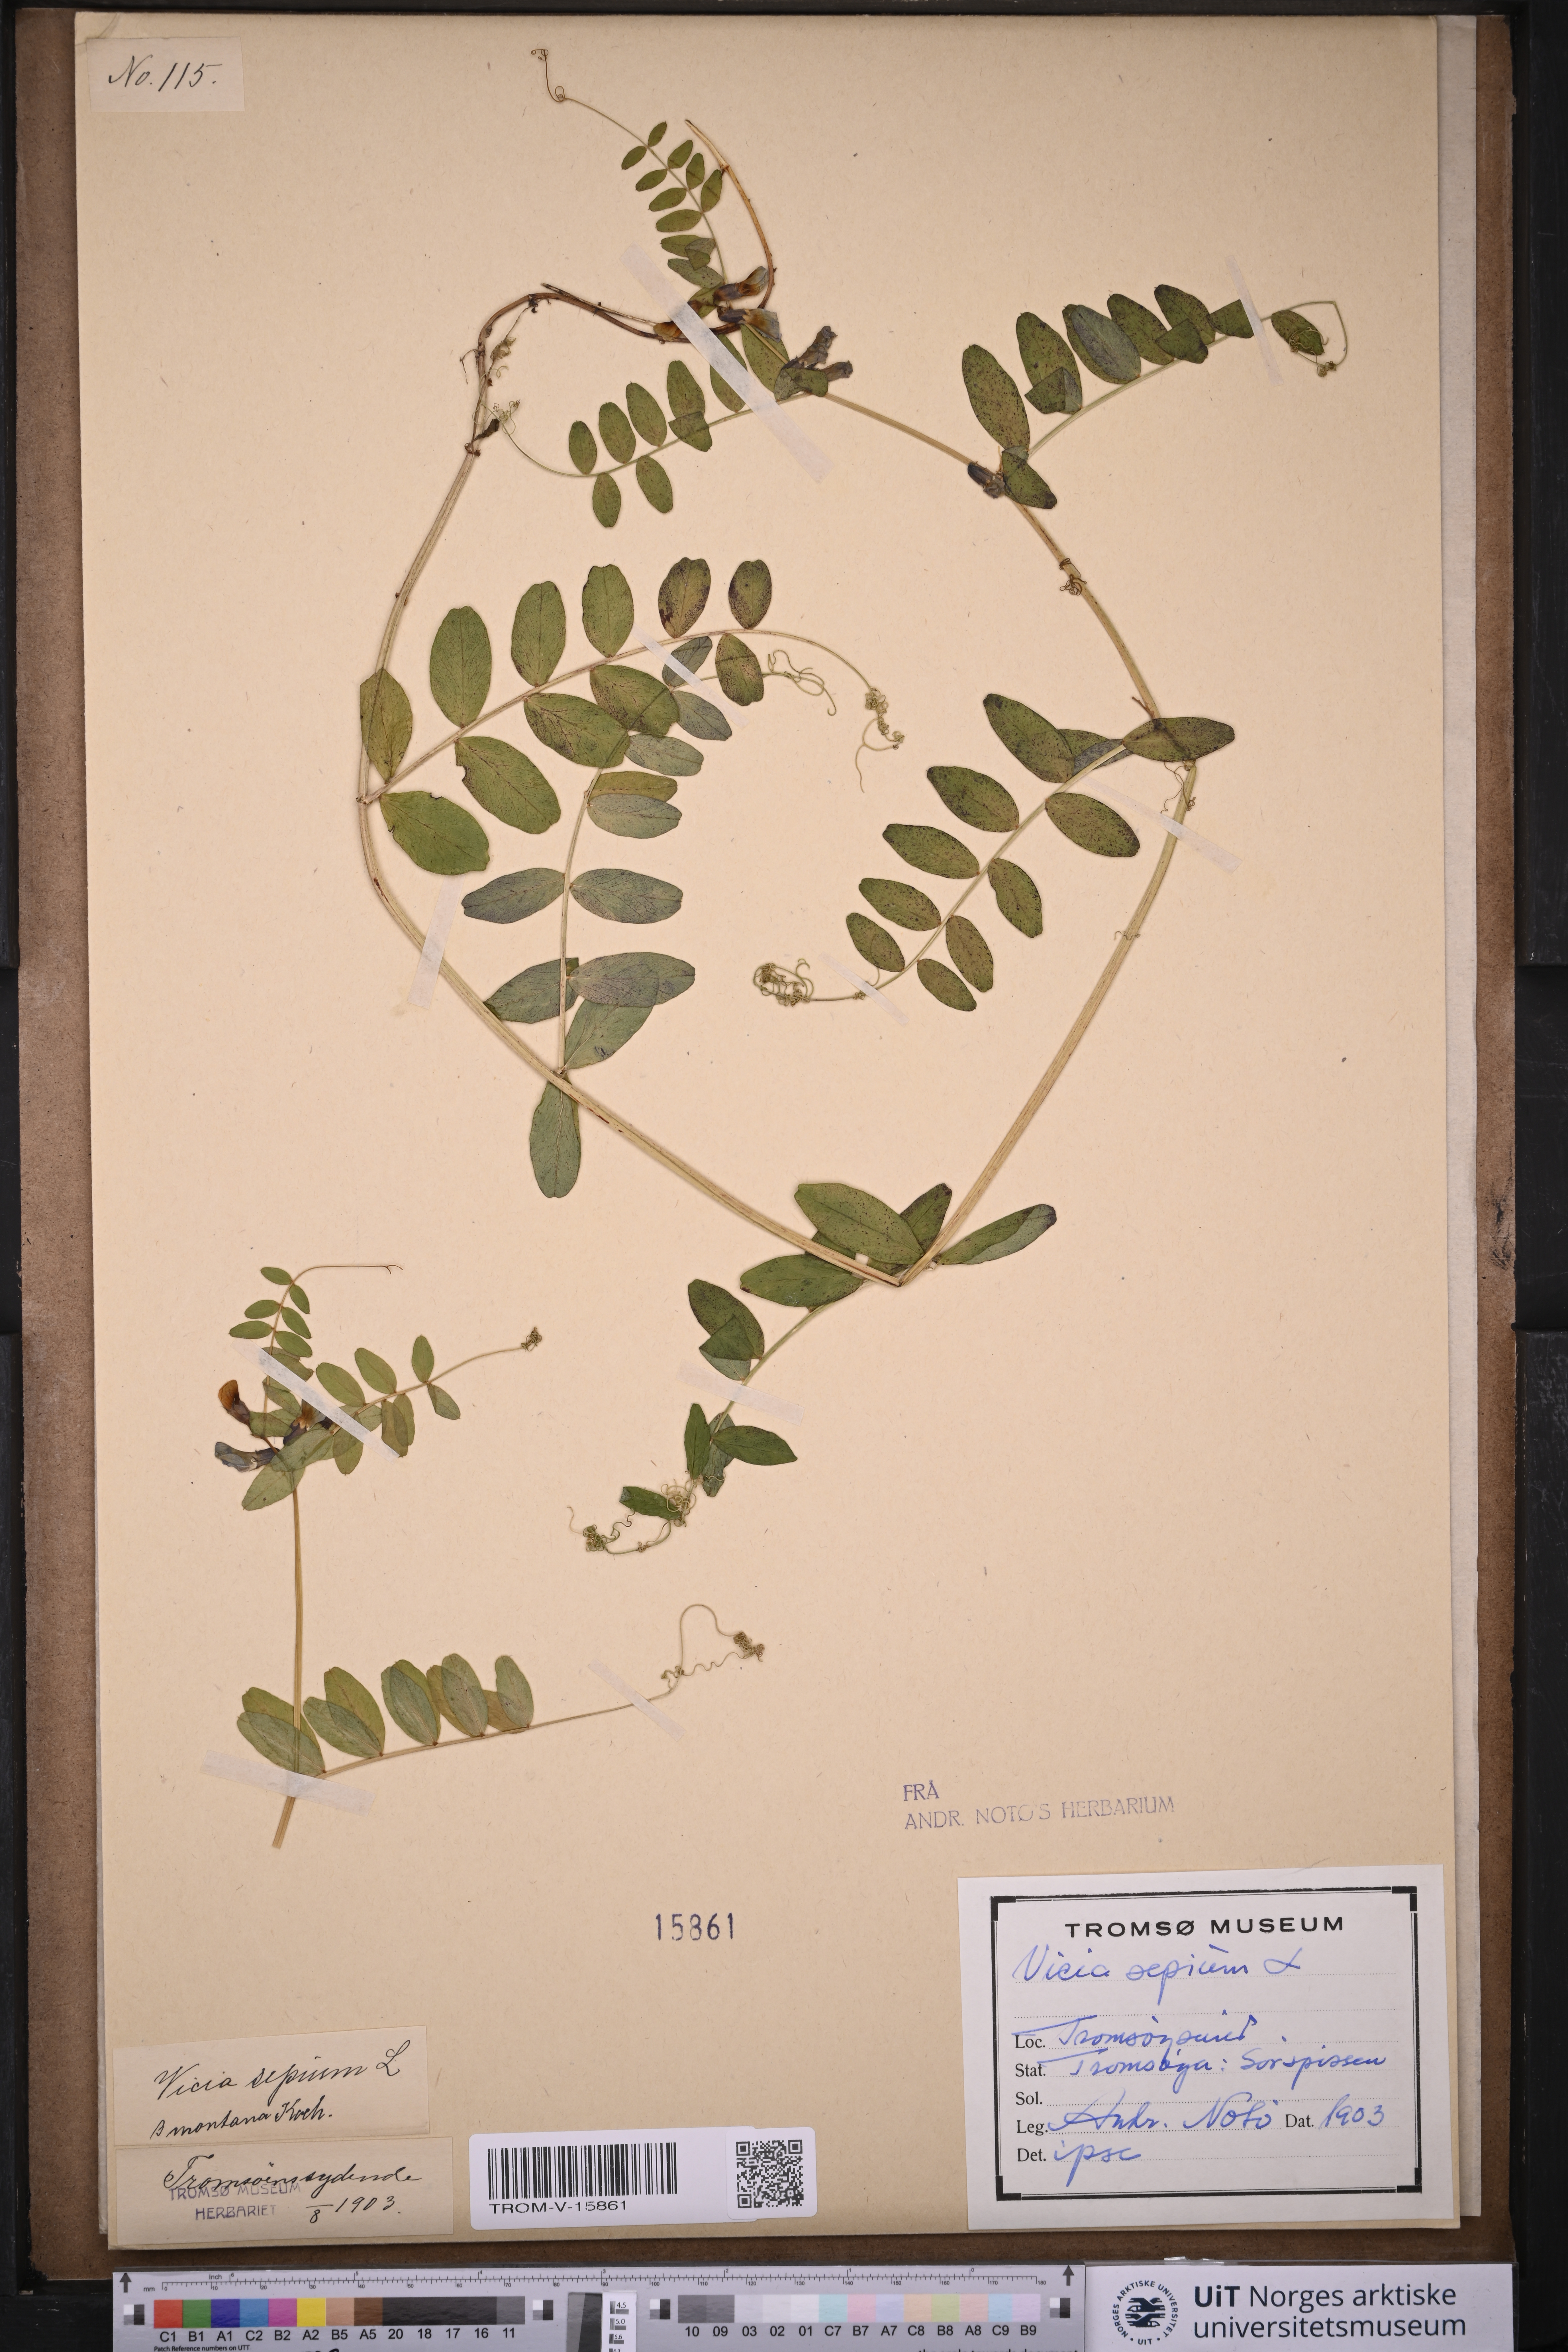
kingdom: Plantae
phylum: Tracheophyta
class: Magnoliopsida
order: Fabales
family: Fabaceae
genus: Vicia
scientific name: Vicia sepium
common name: Bush vetch
